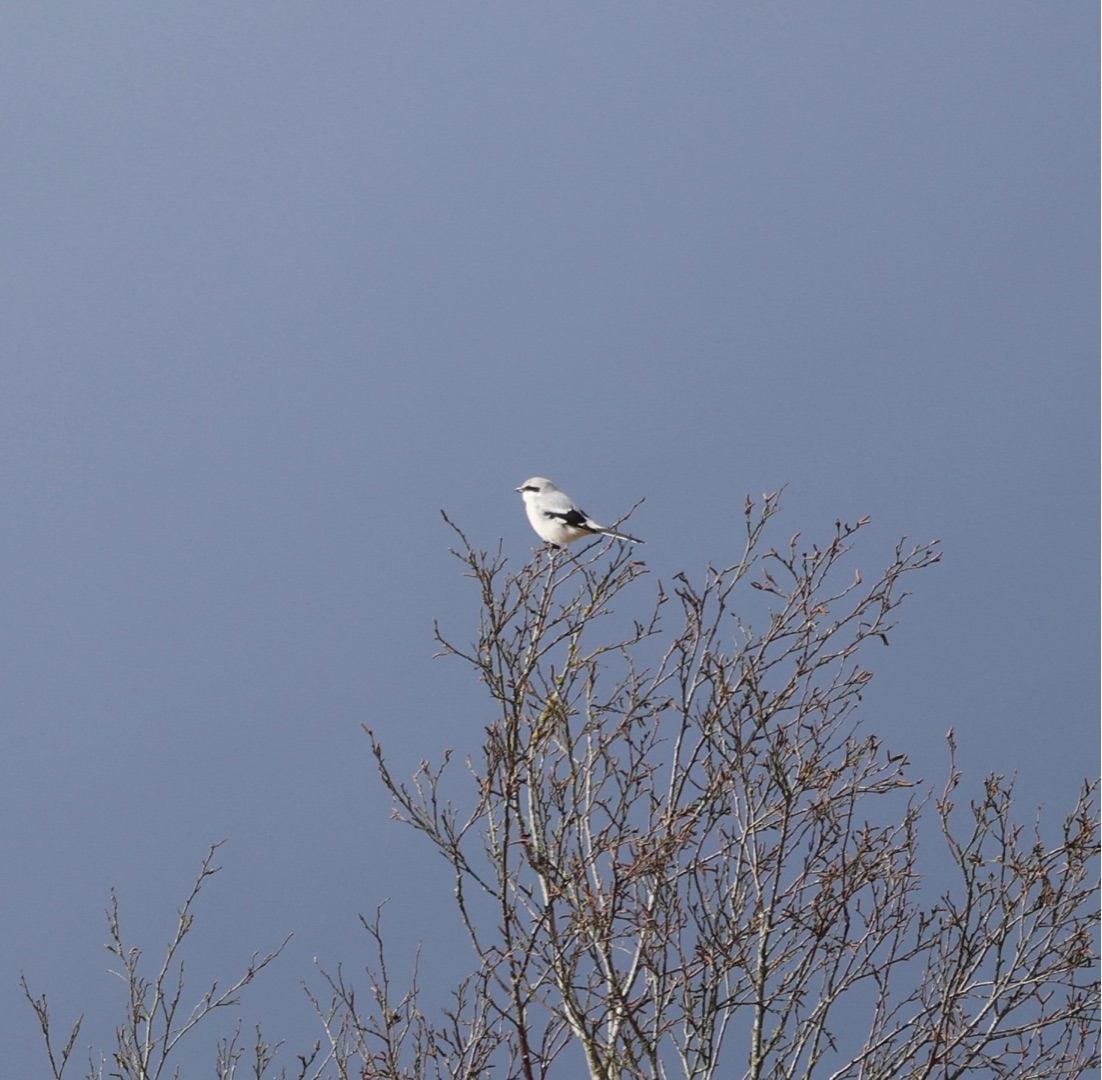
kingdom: Animalia
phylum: Chordata
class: Aves
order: Passeriformes
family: Laniidae
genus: Lanius
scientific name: Lanius excubitor
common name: Stor tornskade
